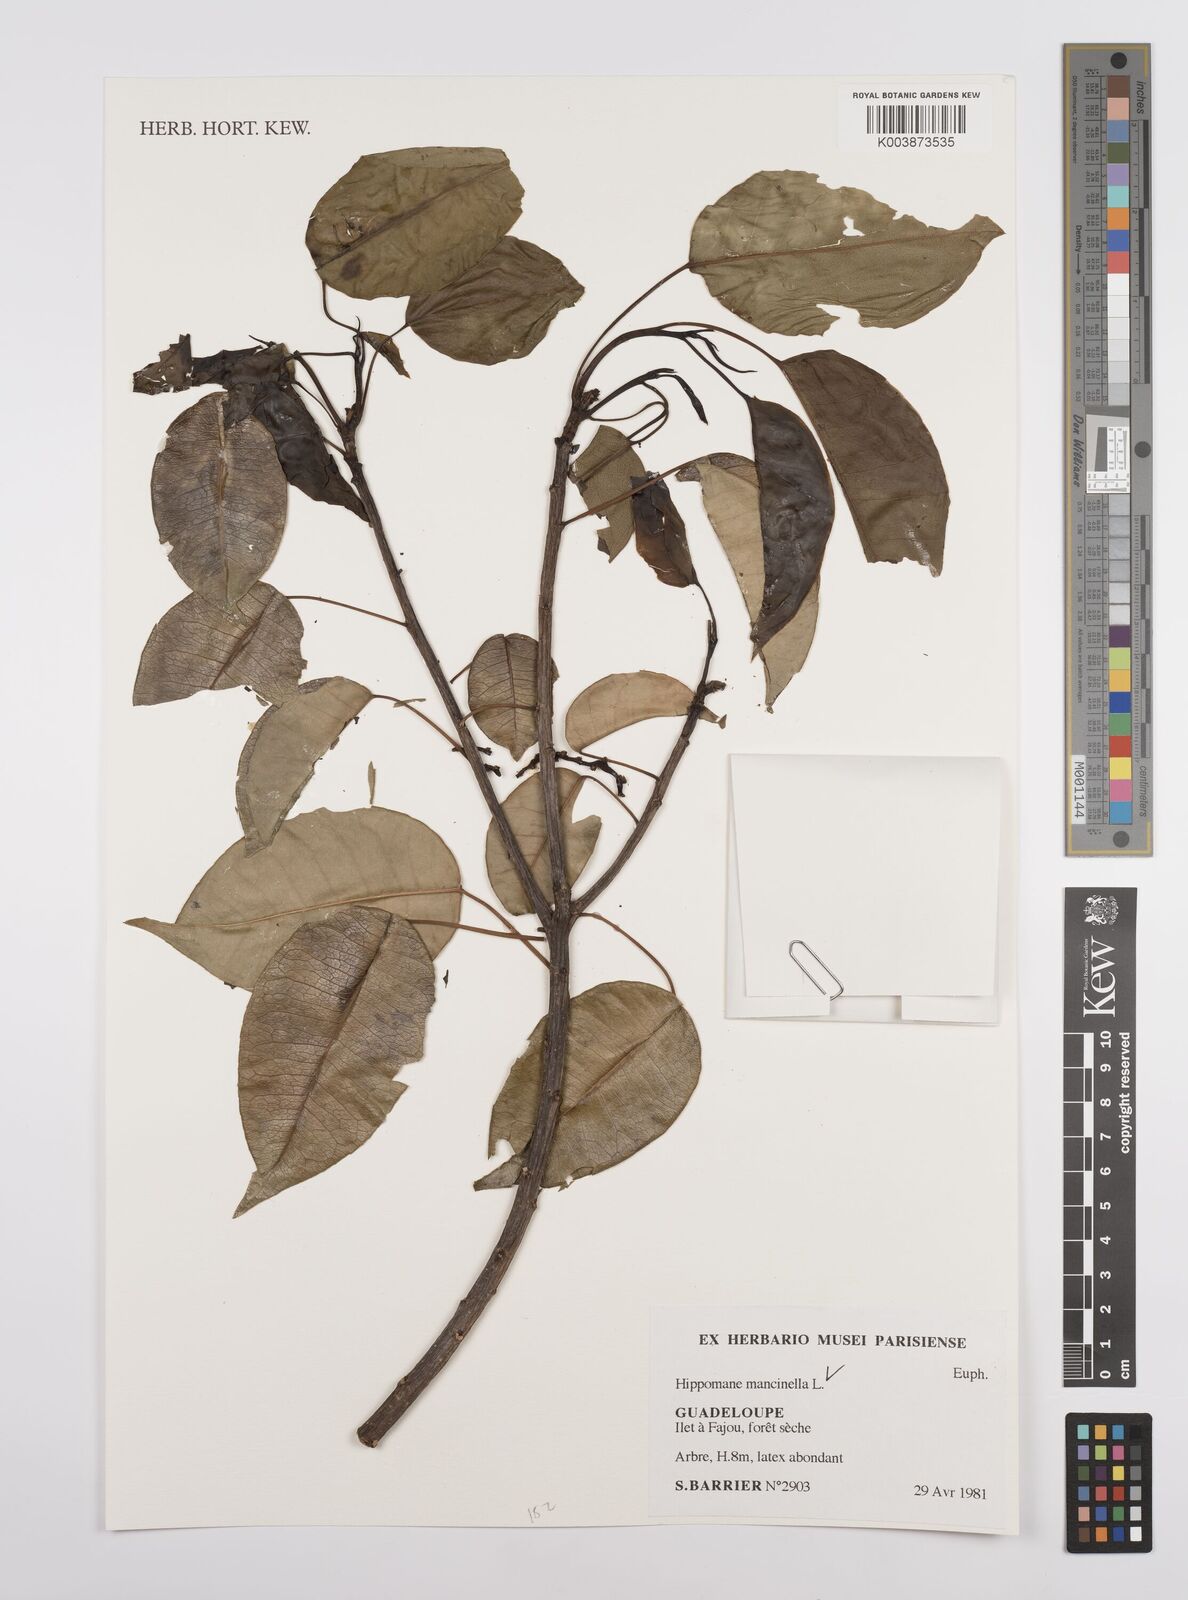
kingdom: Plantae
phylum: Tracheophyta
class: Magnoliopsida
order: Malpighiales
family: Euphorbiaceae
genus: Hippomane
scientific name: Hippomane mancinella
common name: Manchineel
